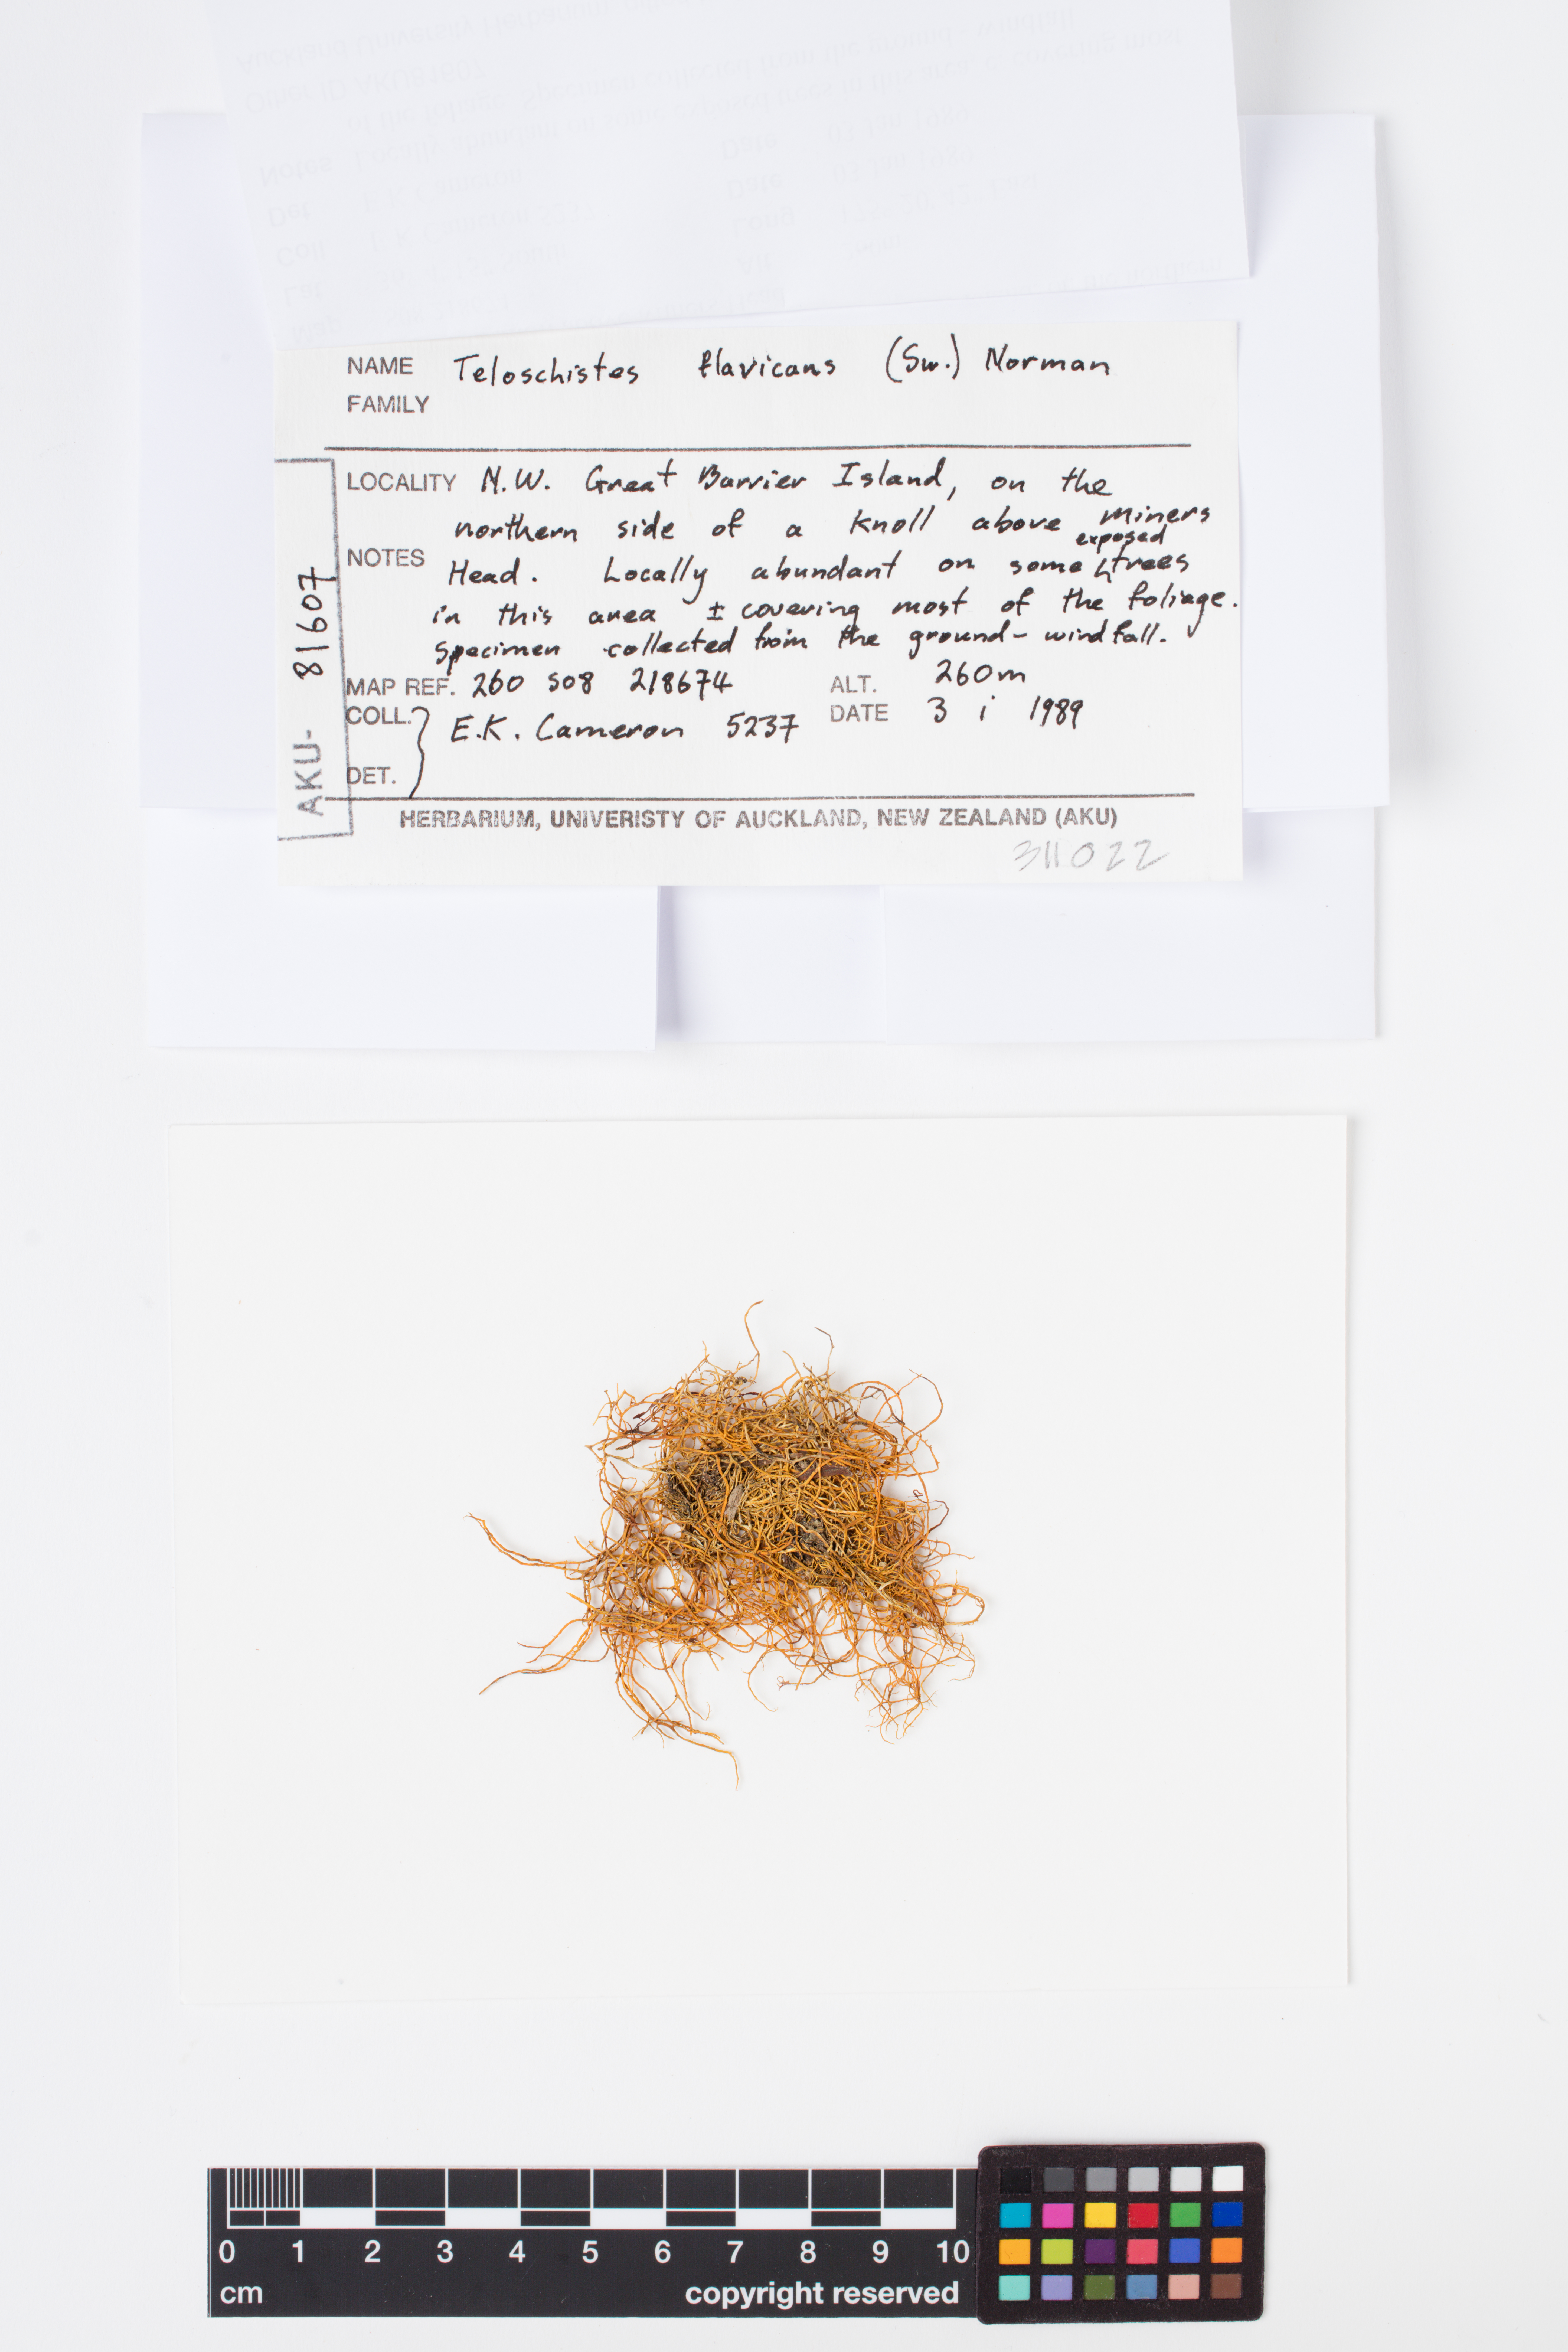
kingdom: Fungi
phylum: Ascomycota
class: Lecanoromycetes
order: Teloschistales
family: Teloschistaceae
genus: Teloschistes
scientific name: Teloschistes flavicans
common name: Golden hair-lichen
